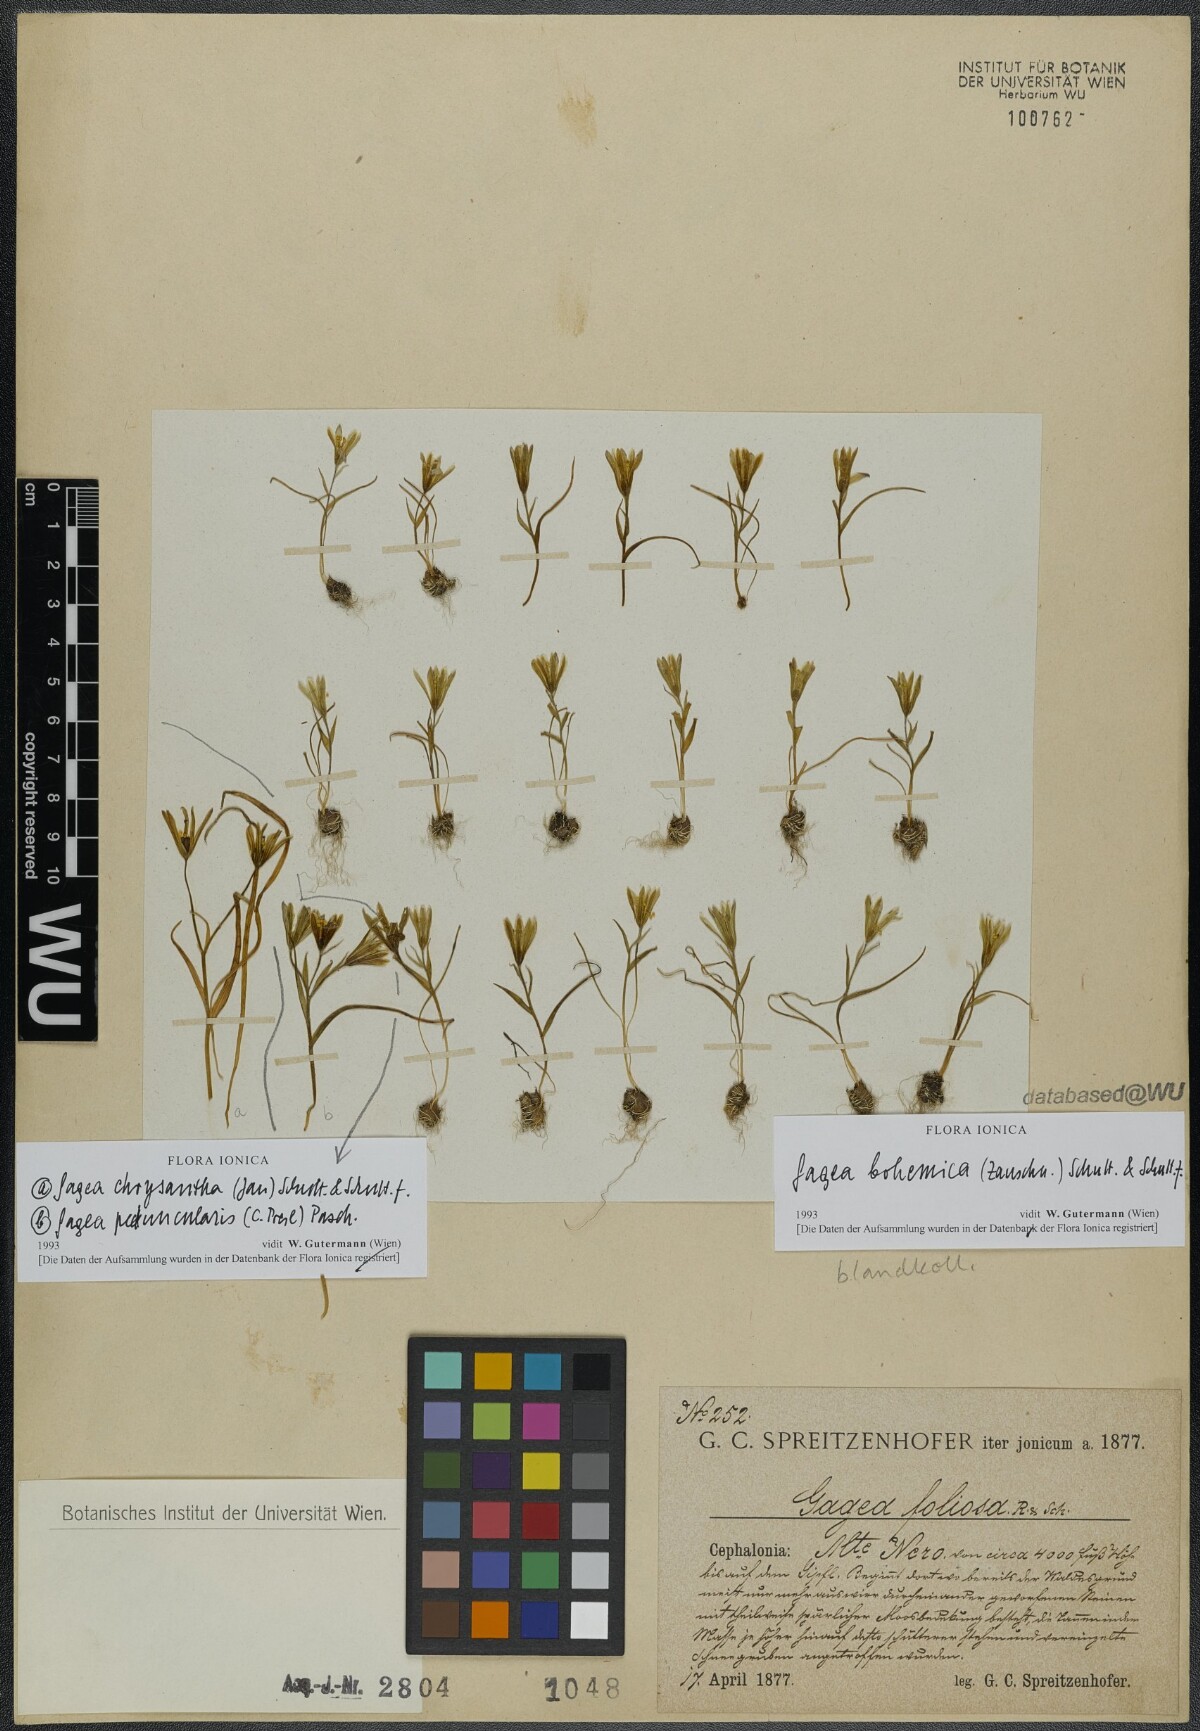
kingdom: Plantae
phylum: Tracheophyta
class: Liliopsida
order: Liliales
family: Liliaceae
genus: Gagea
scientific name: Gagea bohemica
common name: Early star-of-bethlehem
